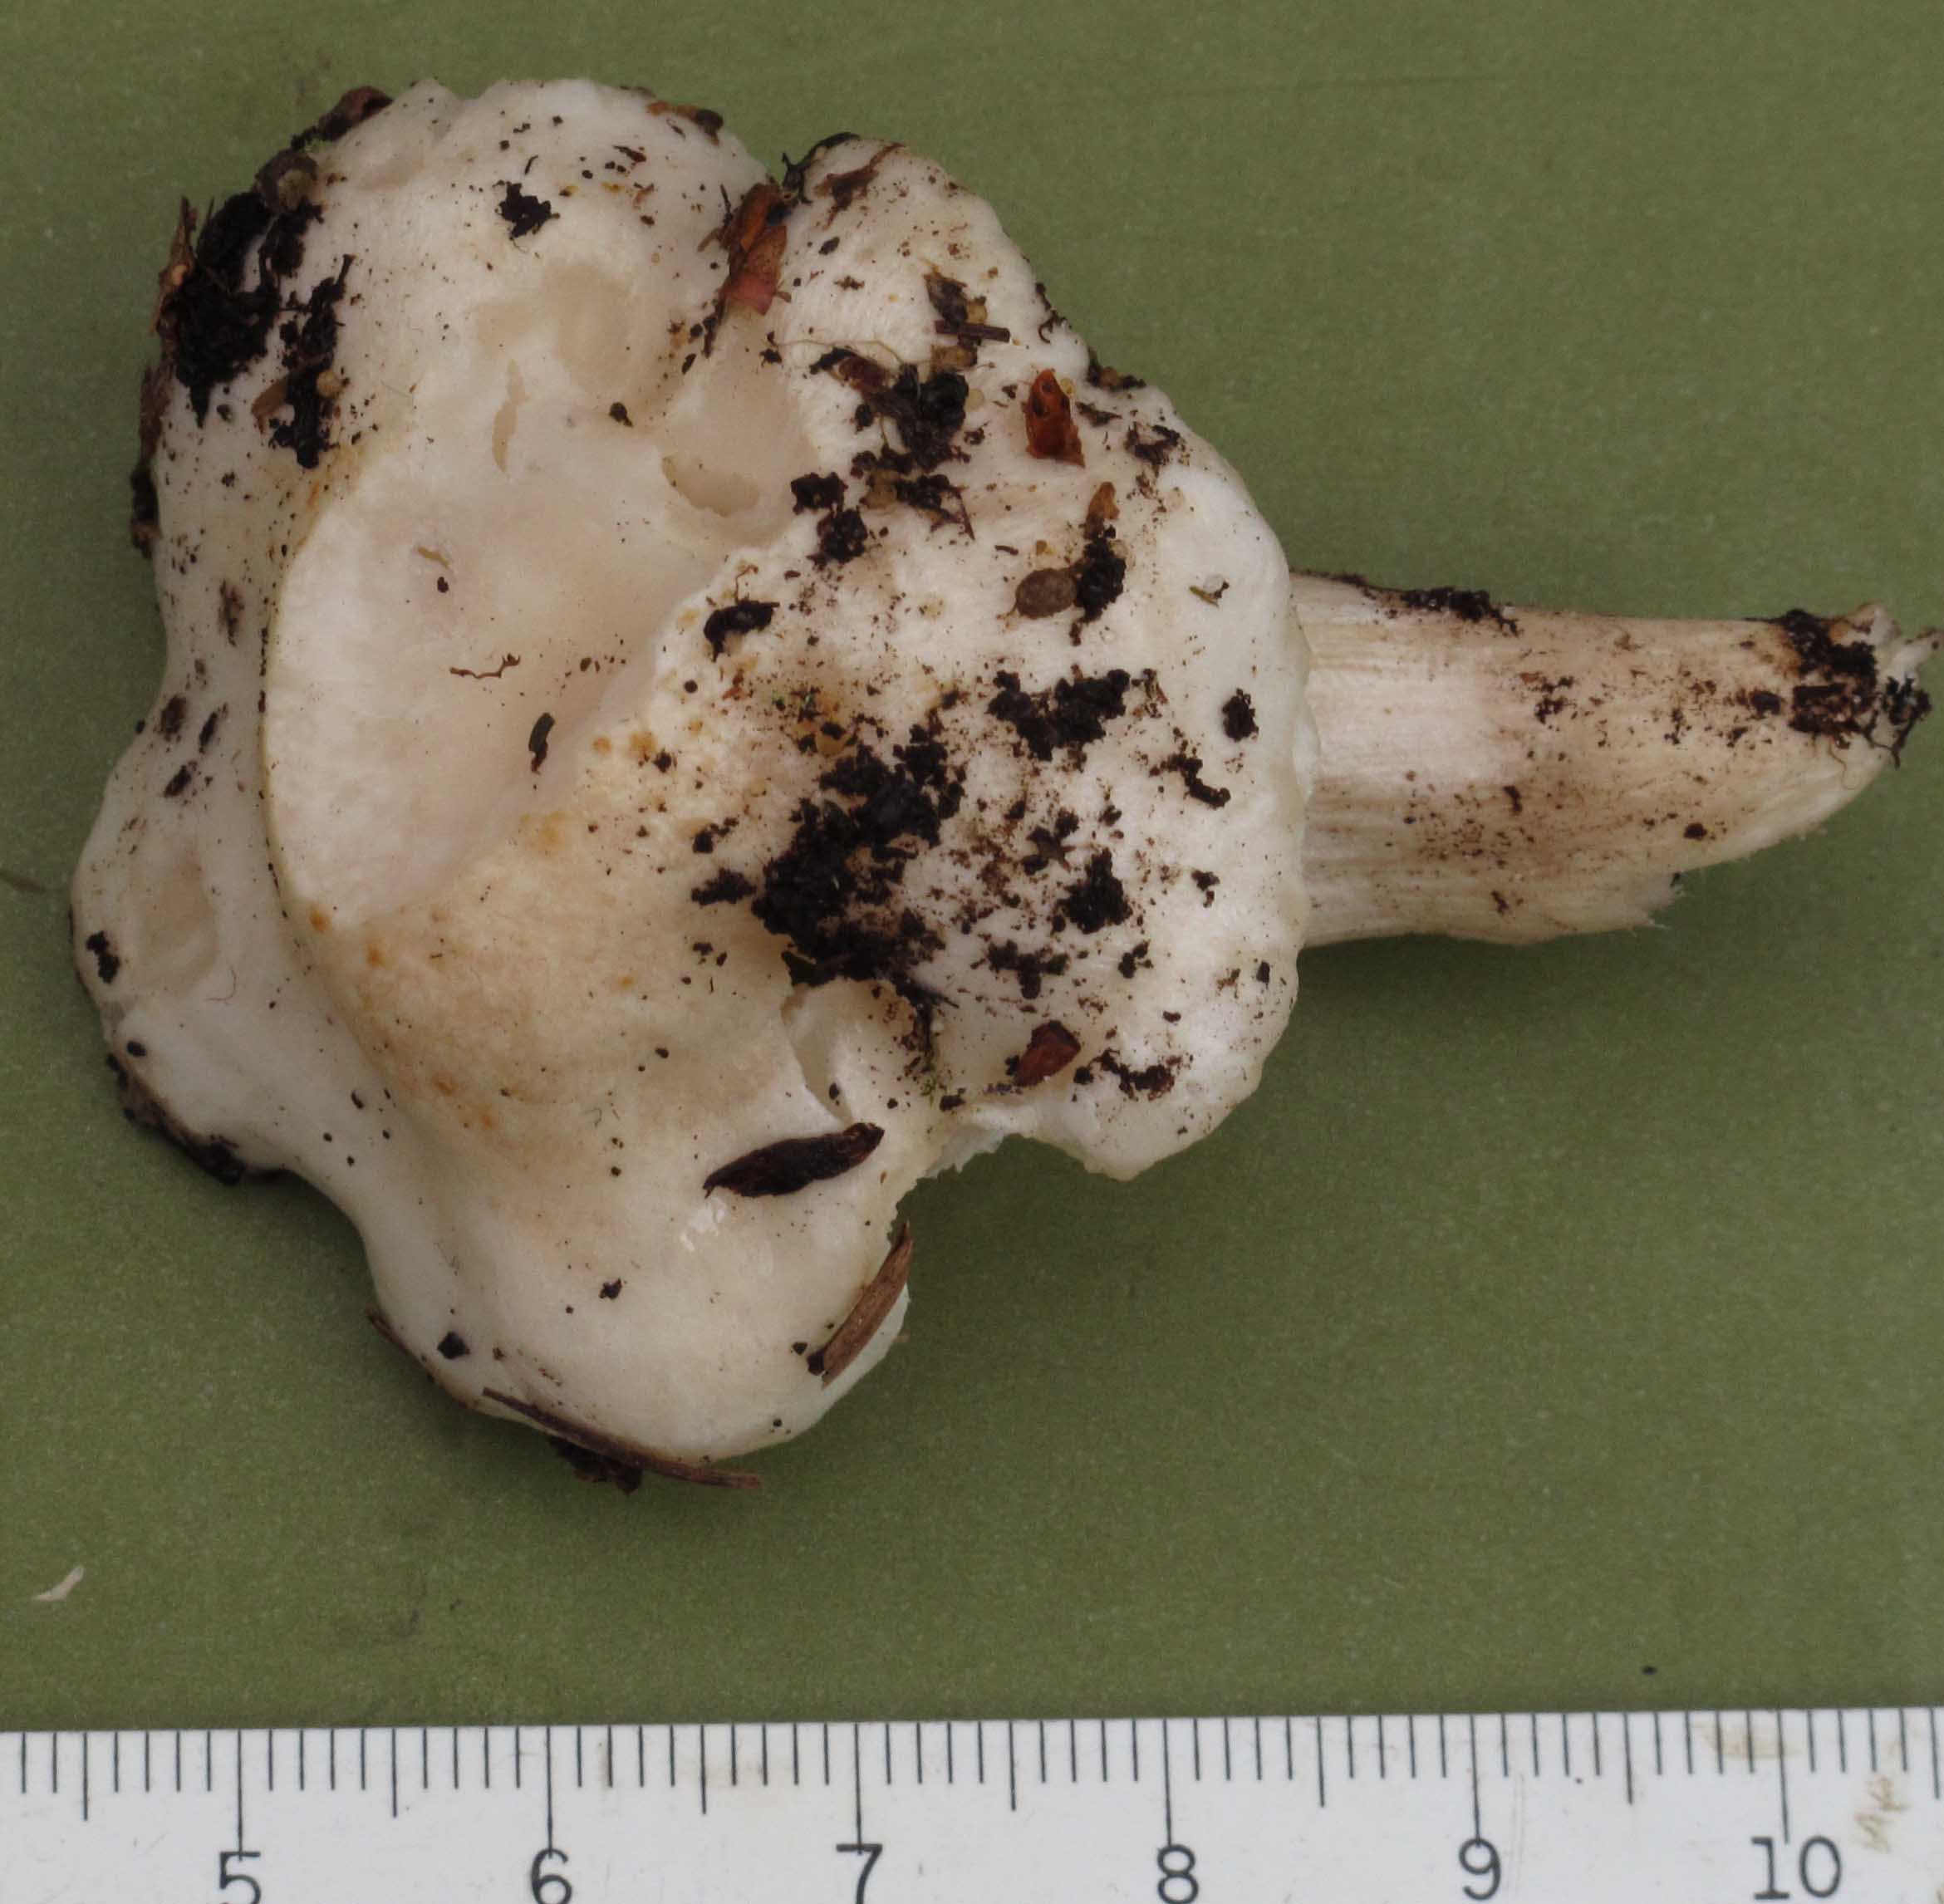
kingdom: Fungi
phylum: Basidiomycota
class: Agaricomycetes
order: Agaricales
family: Hygrophoraceae
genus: Hygrophorus
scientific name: Hygrophorus penarius
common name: spiselig sneglehat
